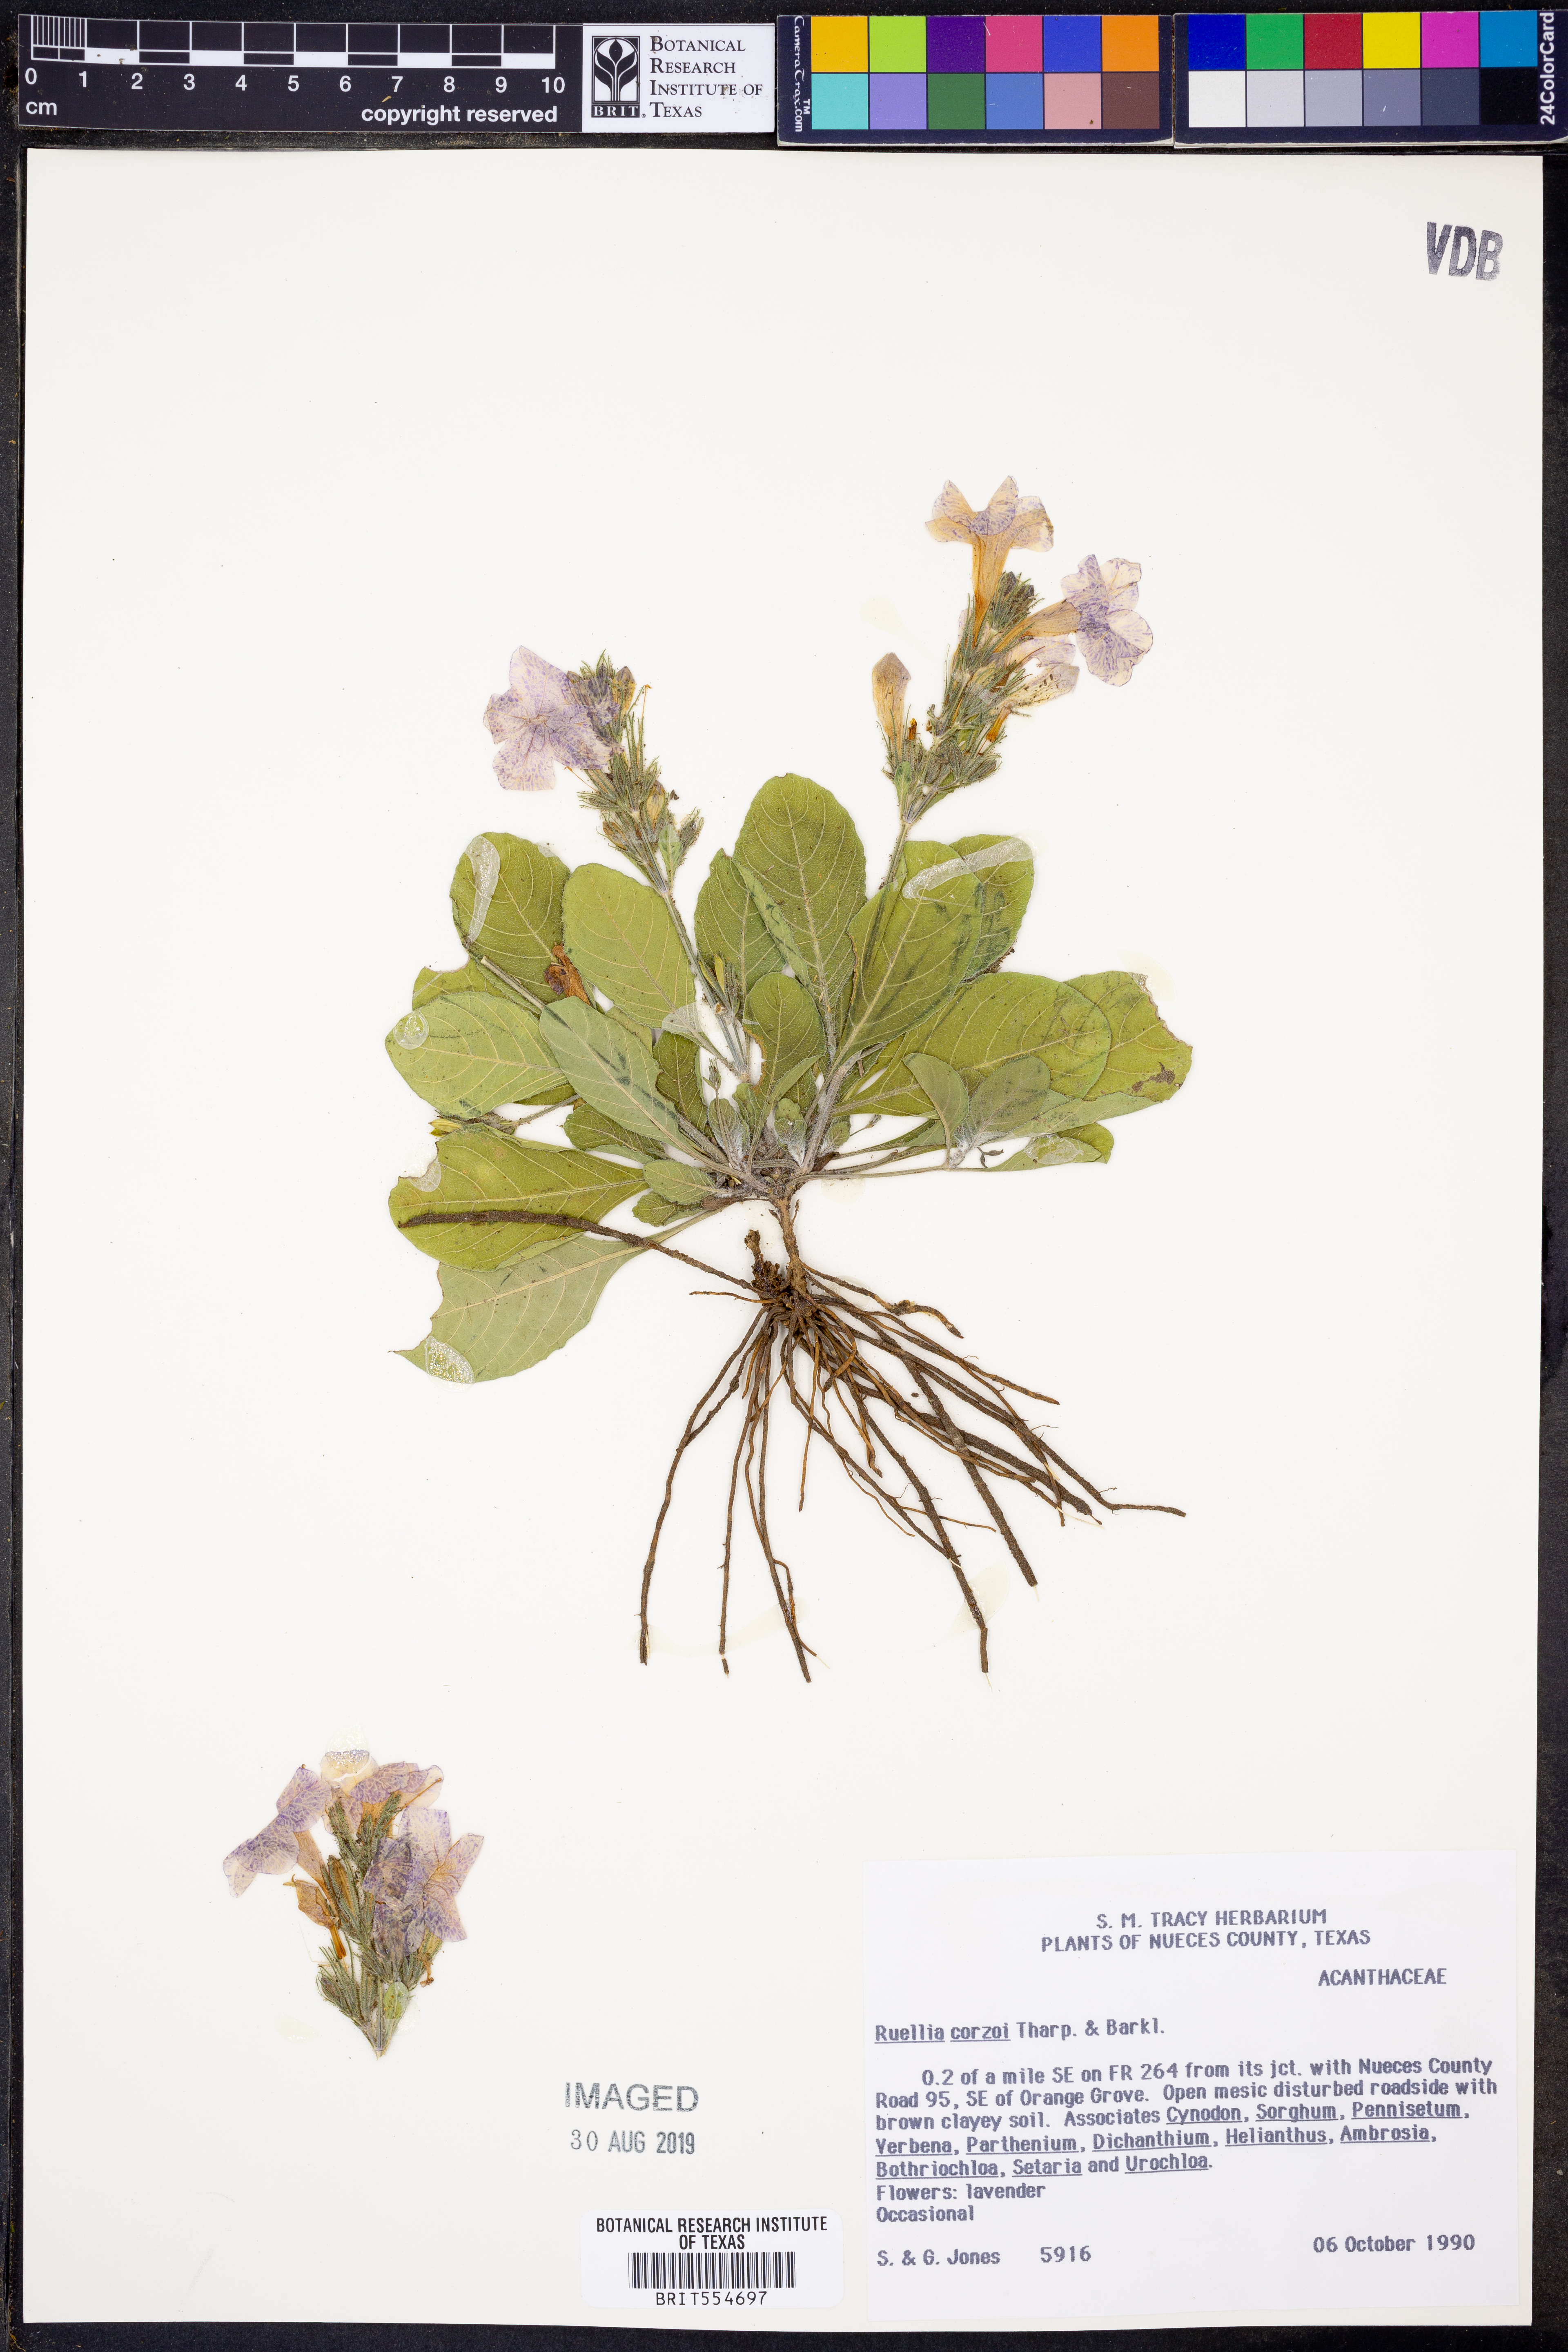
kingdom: Plantae
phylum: Tracheophyta
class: Magnoliopsida
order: Lamiales
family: Acanthaceae
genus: Ruellia
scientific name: Ruellia corzoi
